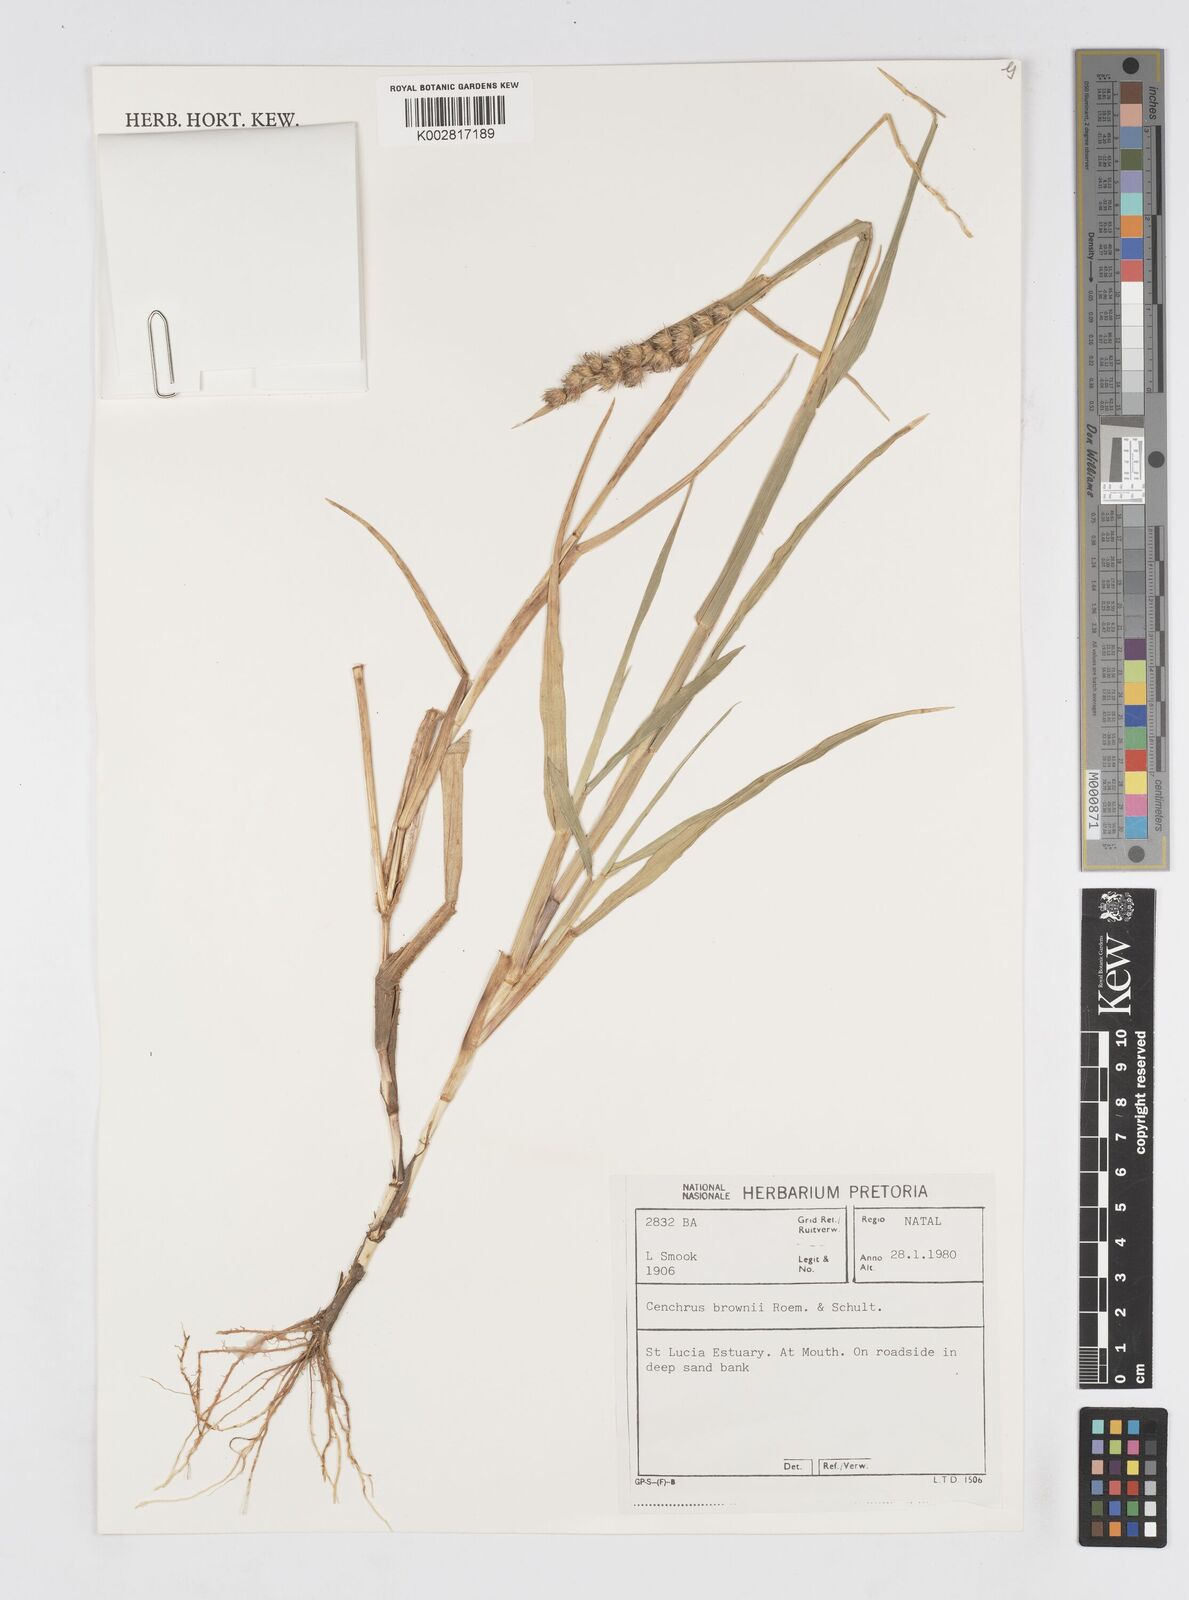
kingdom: Plantae
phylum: Tracheophyta
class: Liliopsida
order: Poales
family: Poaceae
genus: Cenchrus
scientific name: Cenchrus brownii
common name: Slim-bristle sandbur
